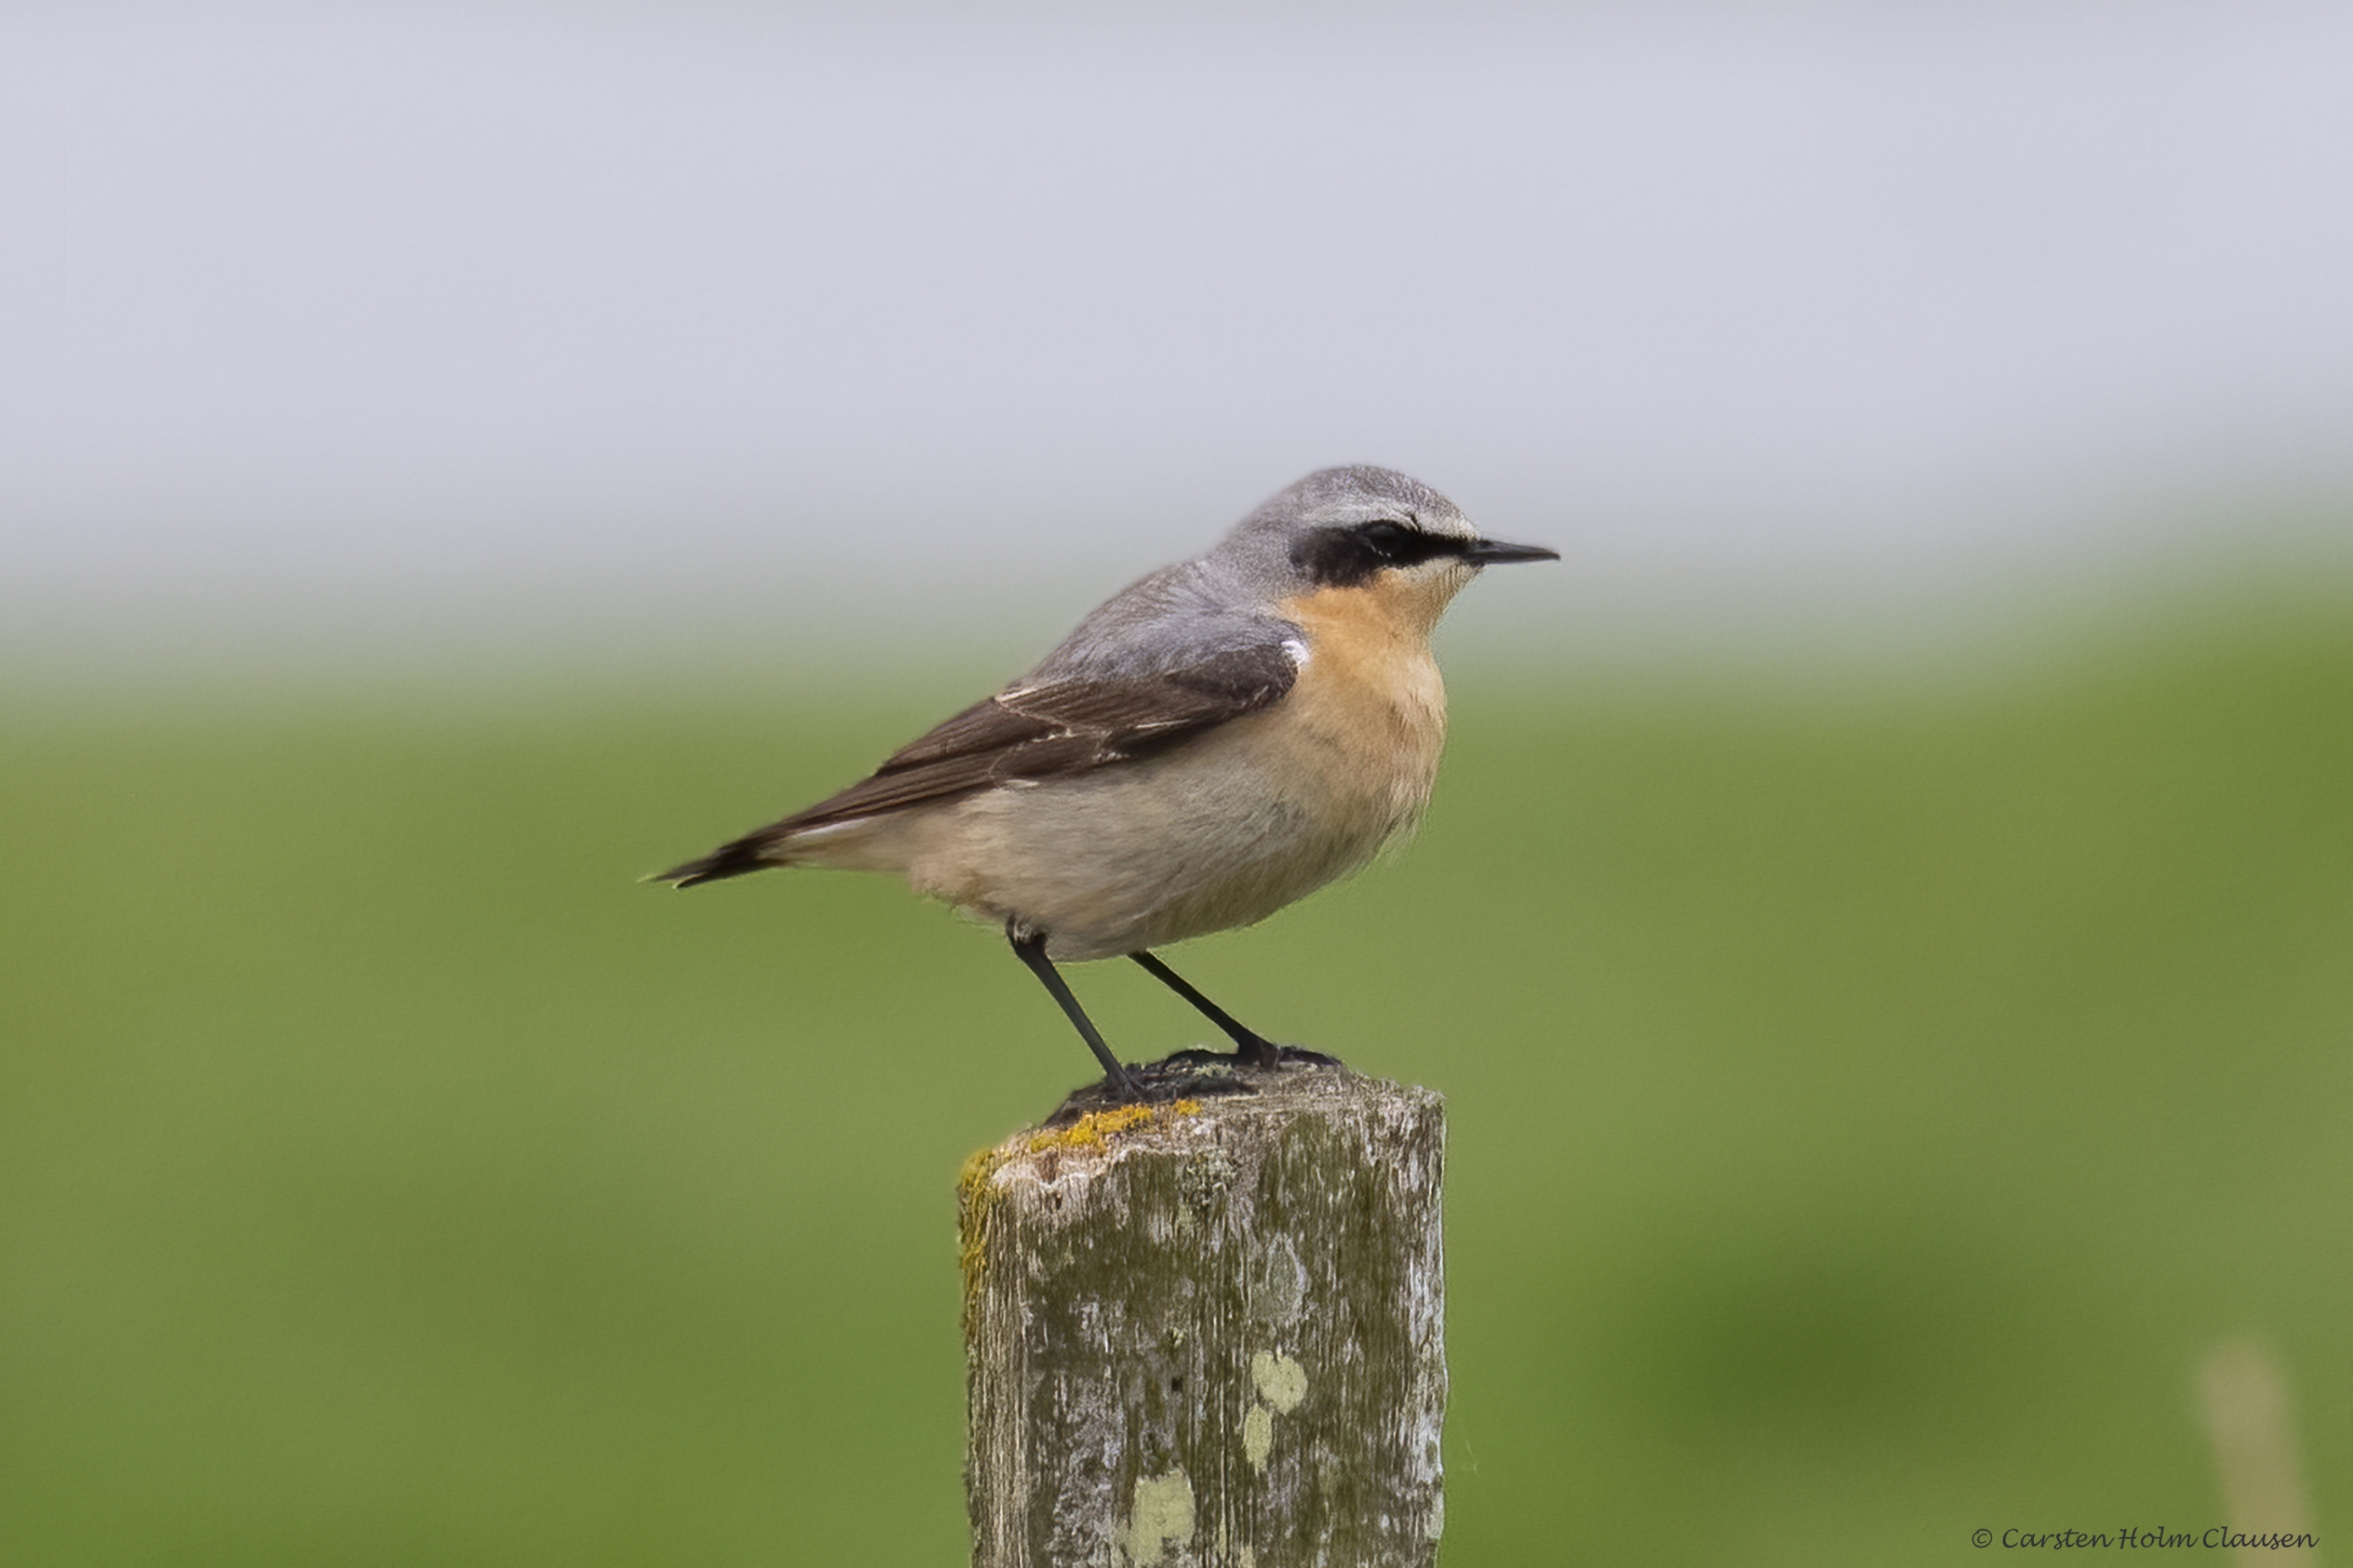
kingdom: Animalia
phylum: Chordata
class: Aves
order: Passeriformes
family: Muscicapidae
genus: Oenanthe
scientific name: Oenanthe oenanthe
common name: Stenpikker
